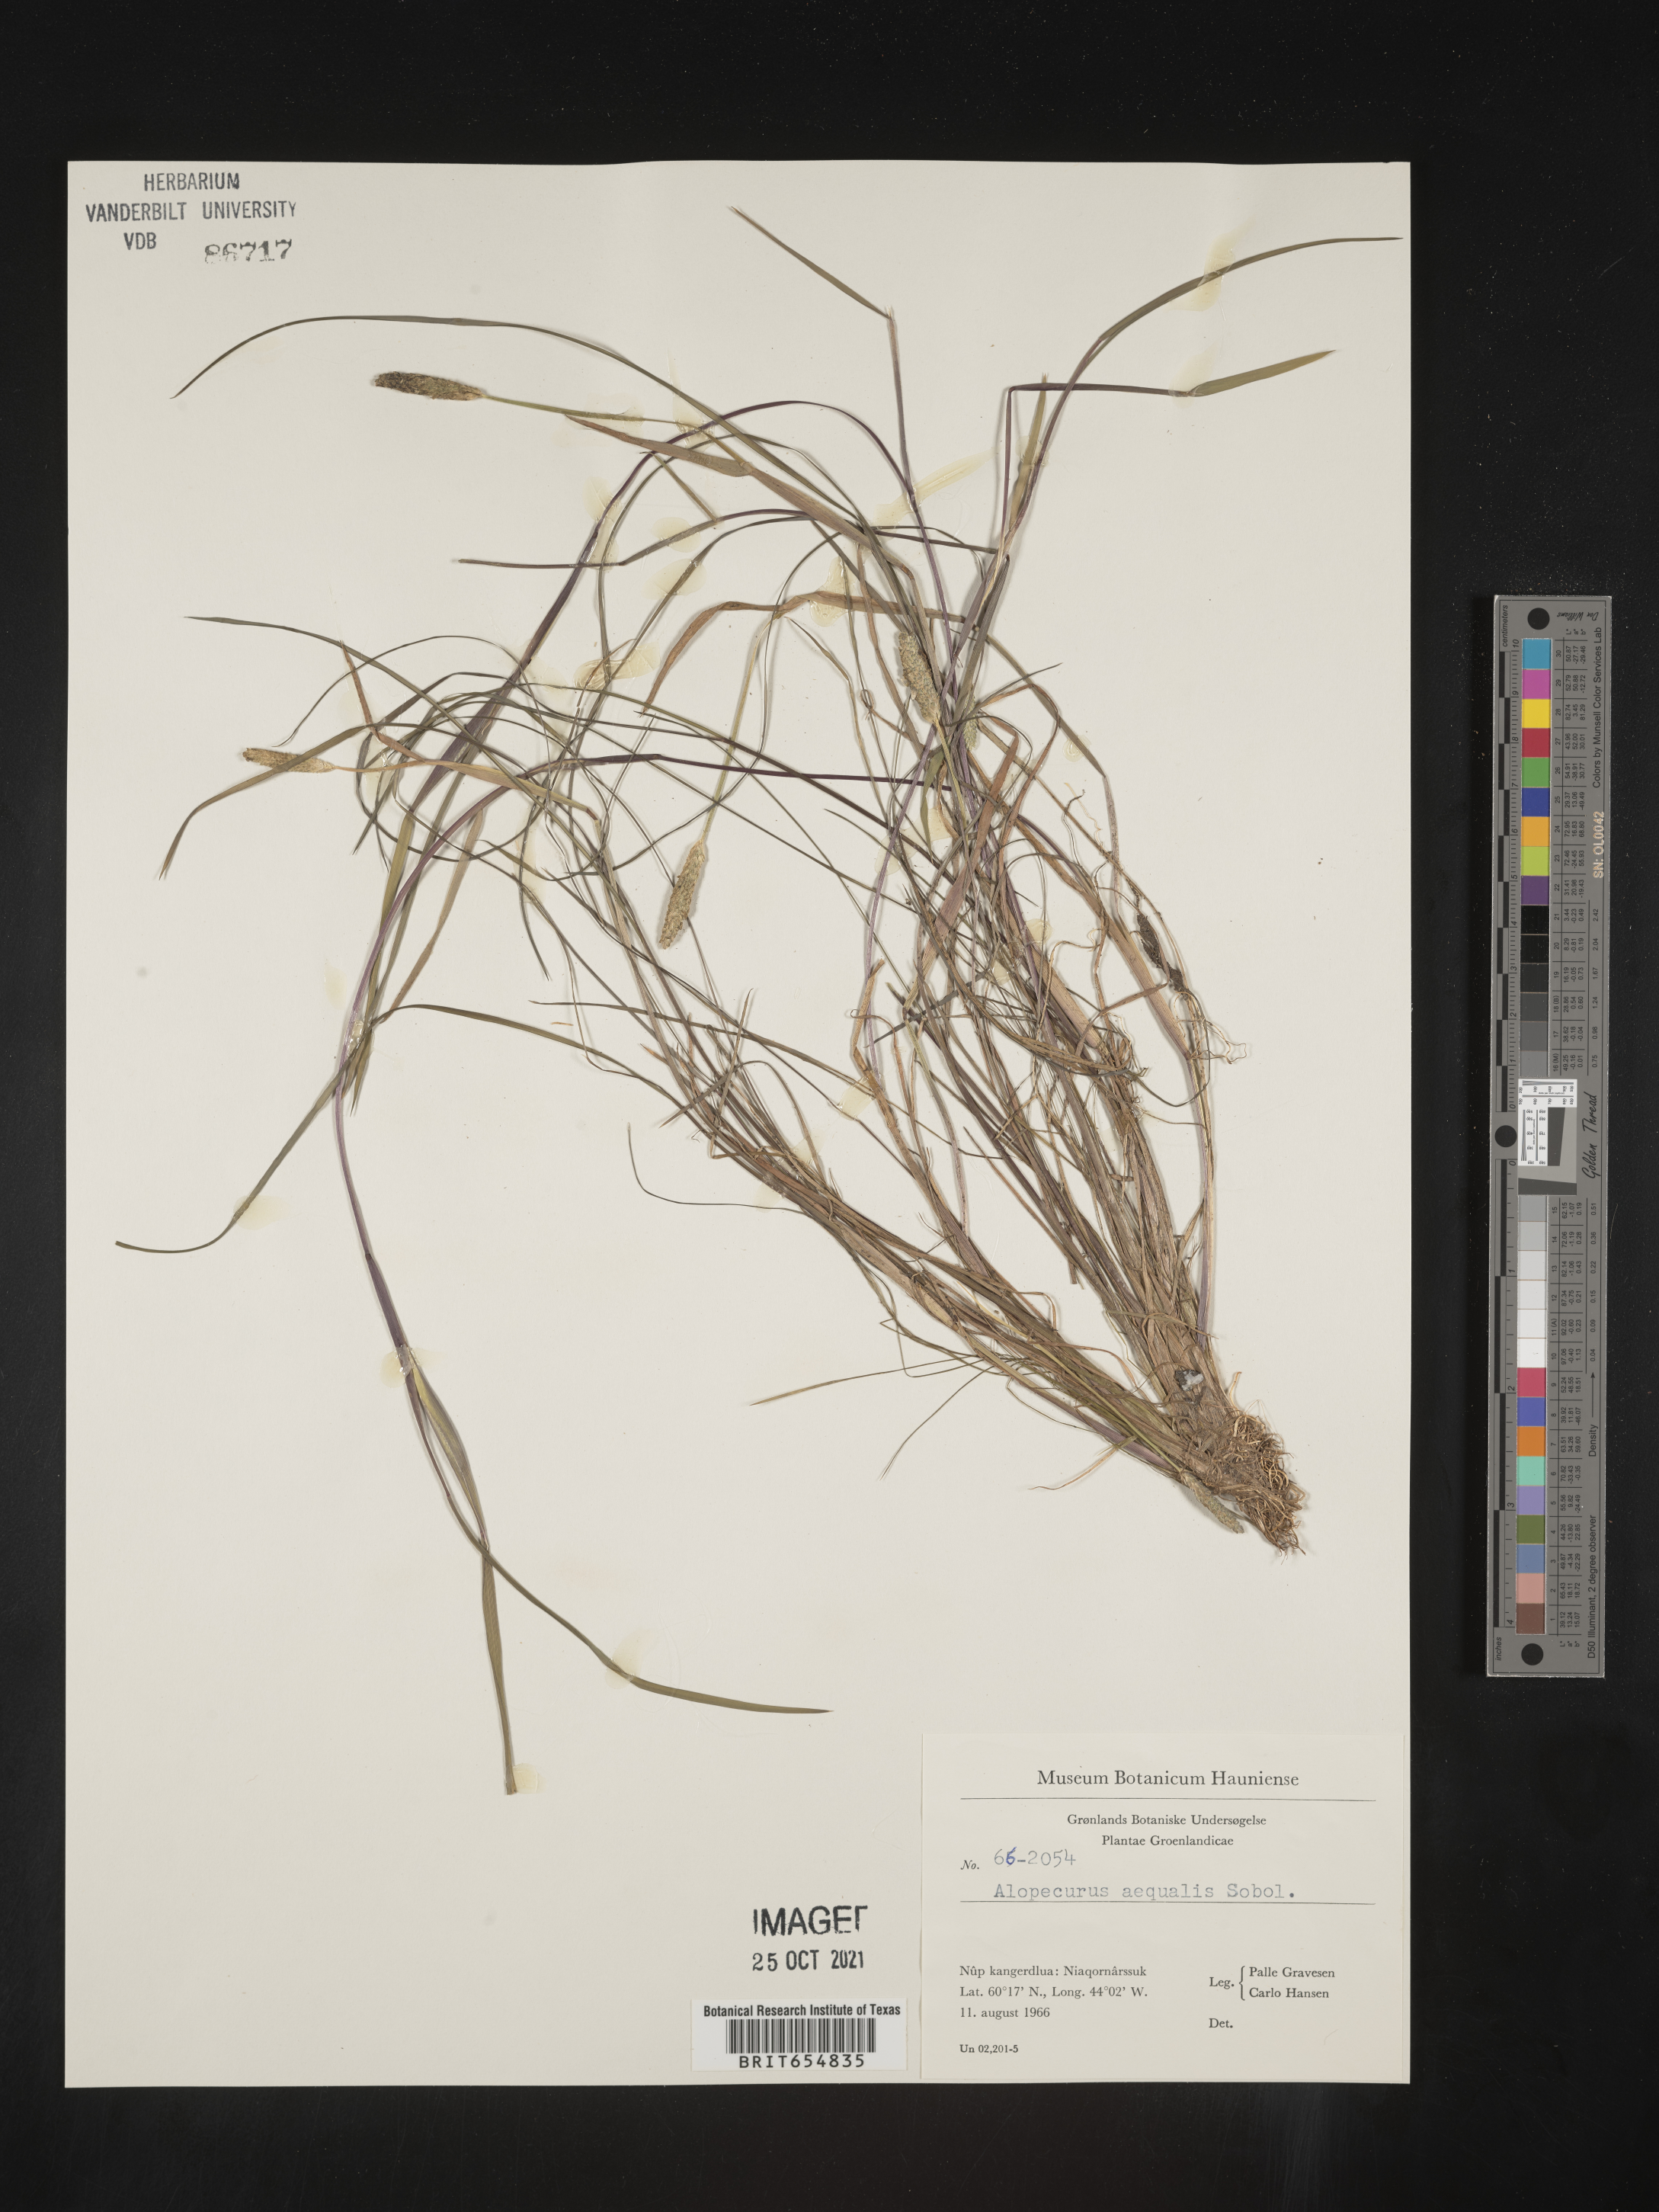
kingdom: Plantae
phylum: Tracheophyta
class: Liliopsida
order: Poales
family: Poaceae
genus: Alopecurus
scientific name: Alopecurus
